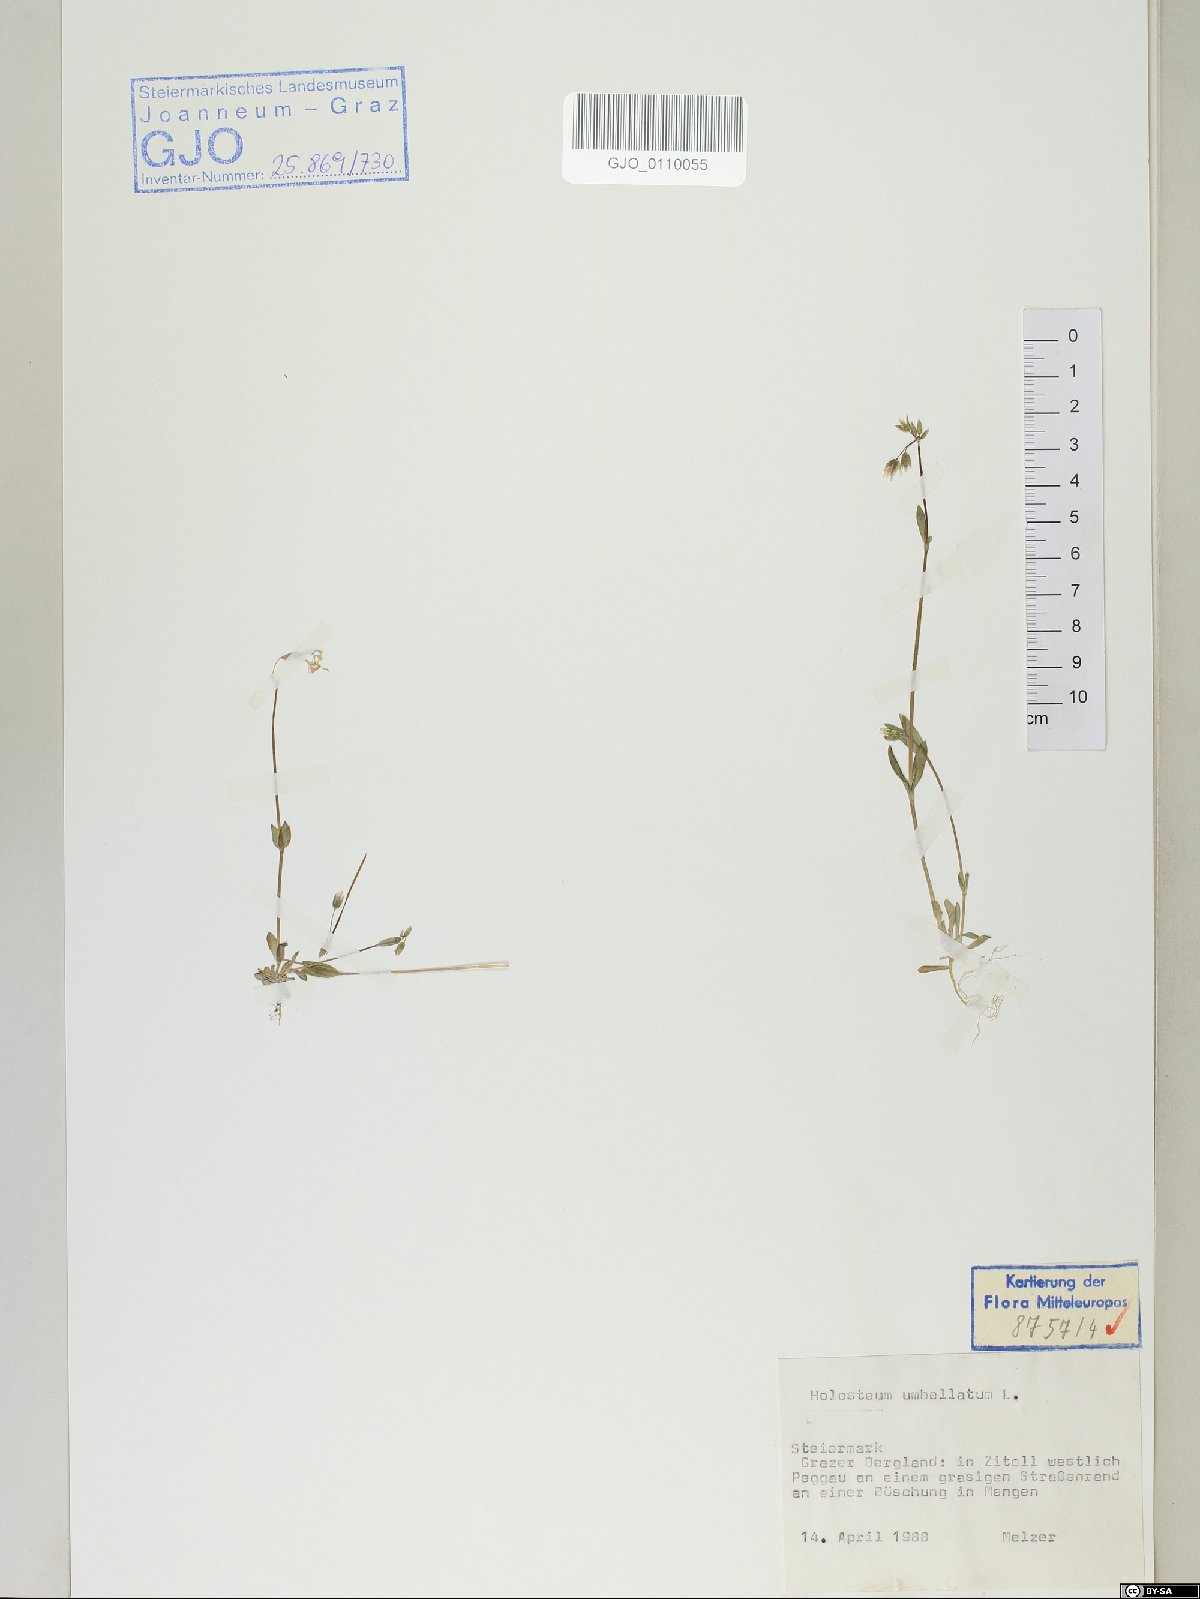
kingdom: Plantae
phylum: Tracheophyta
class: Magnoliopsida
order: Caryophyllales
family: Caryophyllaceae
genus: Holosteum
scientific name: Holosteum umbellatum
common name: Jagged chickweed
